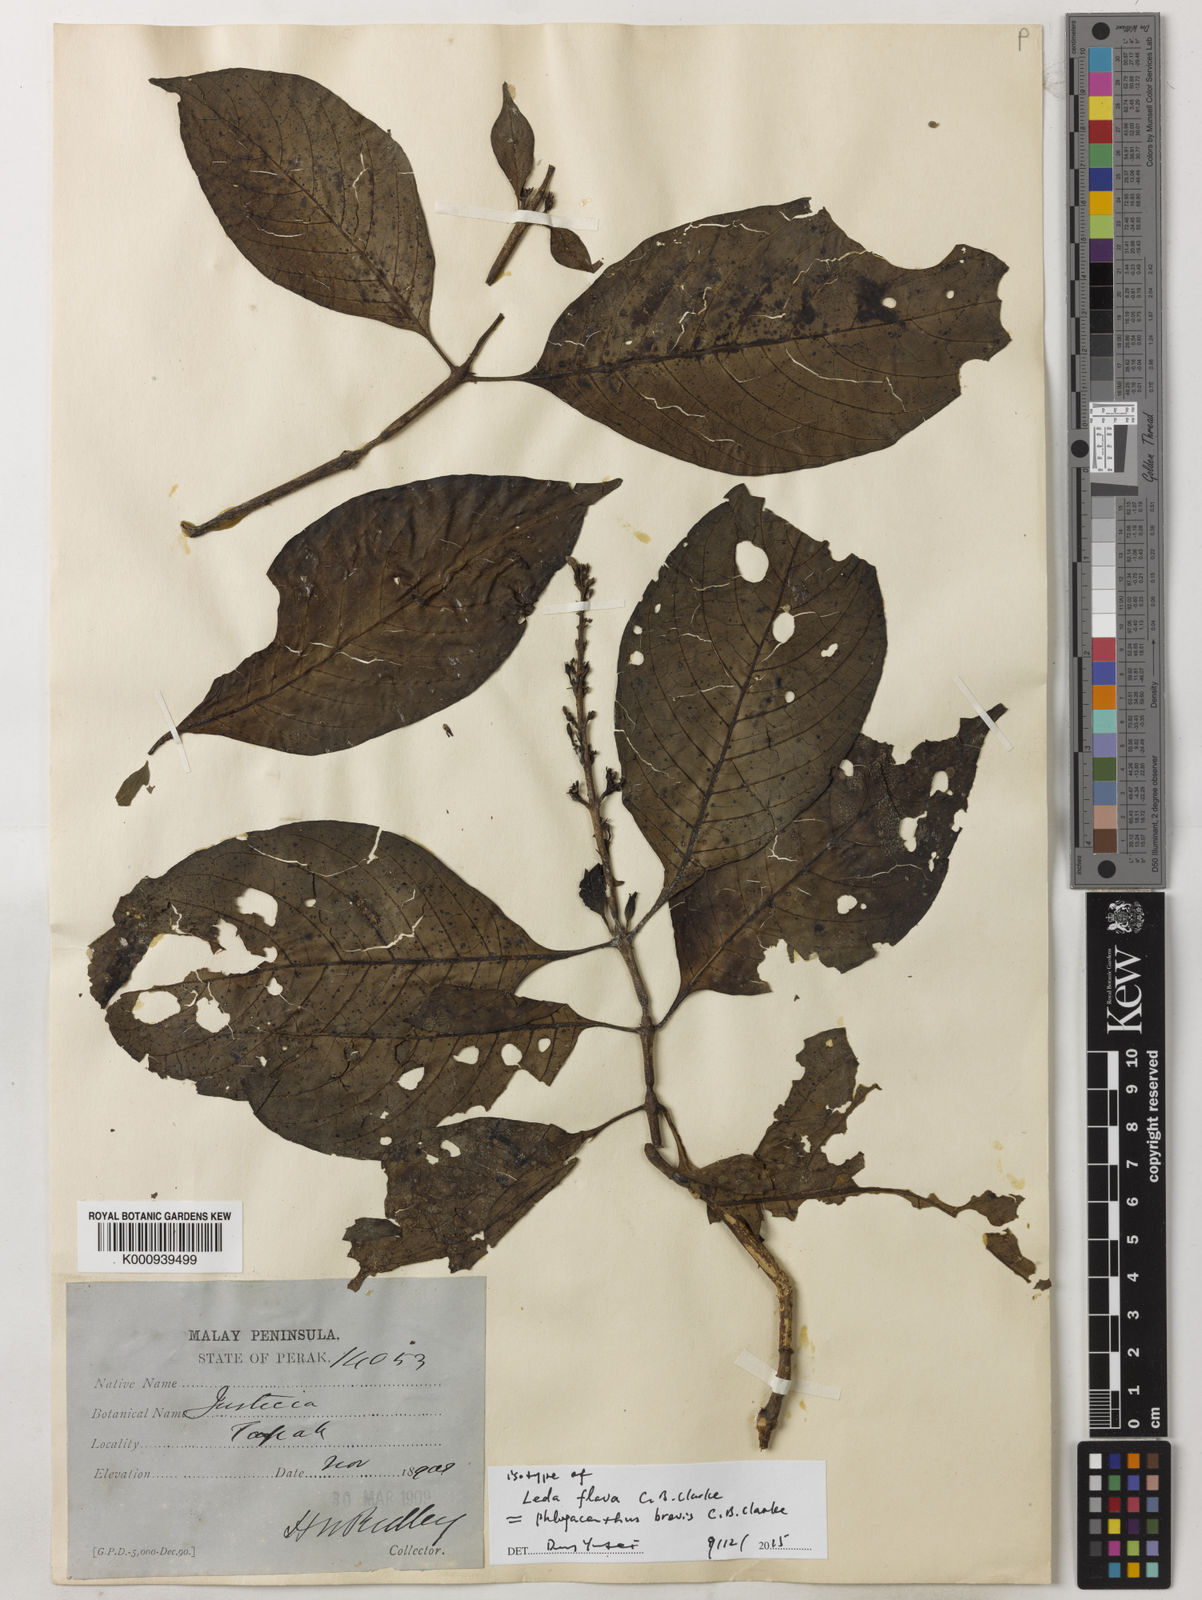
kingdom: Plantae
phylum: Tracheophyta
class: Magnoliopsida
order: Lamiales
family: Acanthaceae
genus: Phlogacanthus
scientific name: Phlogacanthus brevis
